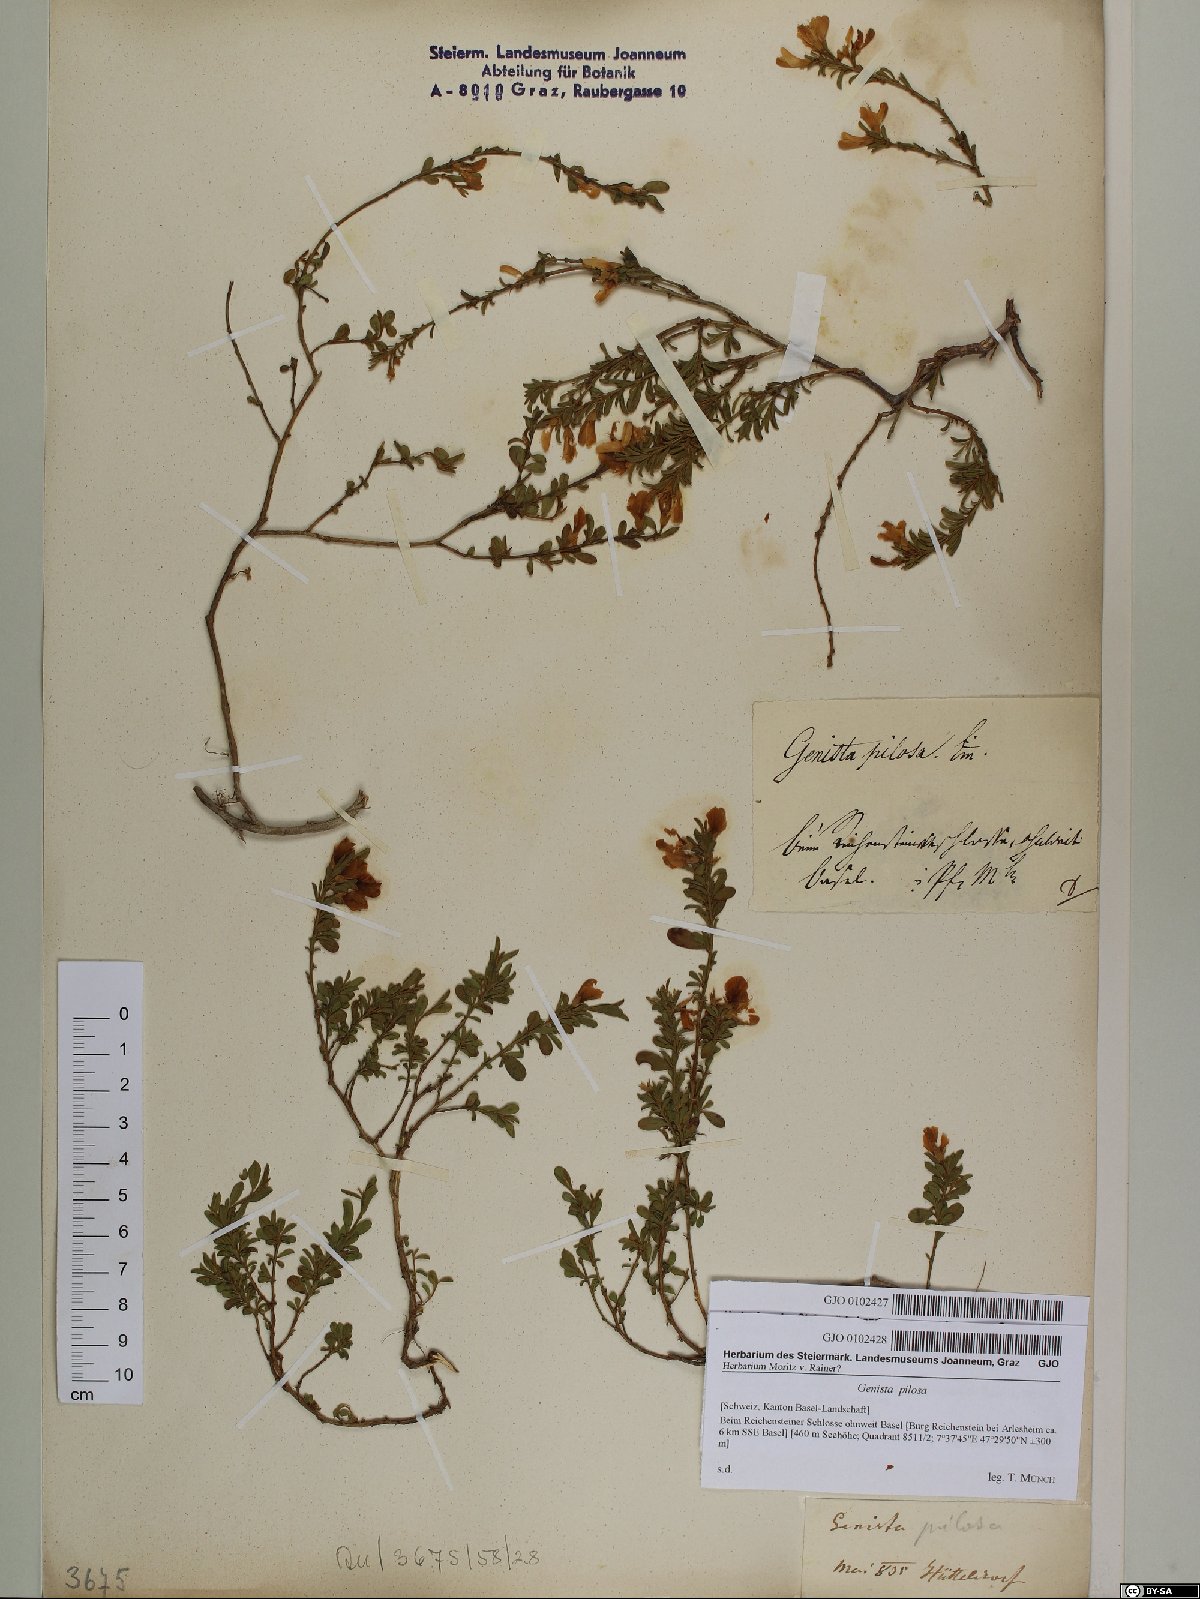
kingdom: Plantae
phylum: Tracheophyta
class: Magnoliopsida
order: Fabales
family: Fabaceae
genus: Genista
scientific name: Genista pilosa
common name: Hairy greenweed
